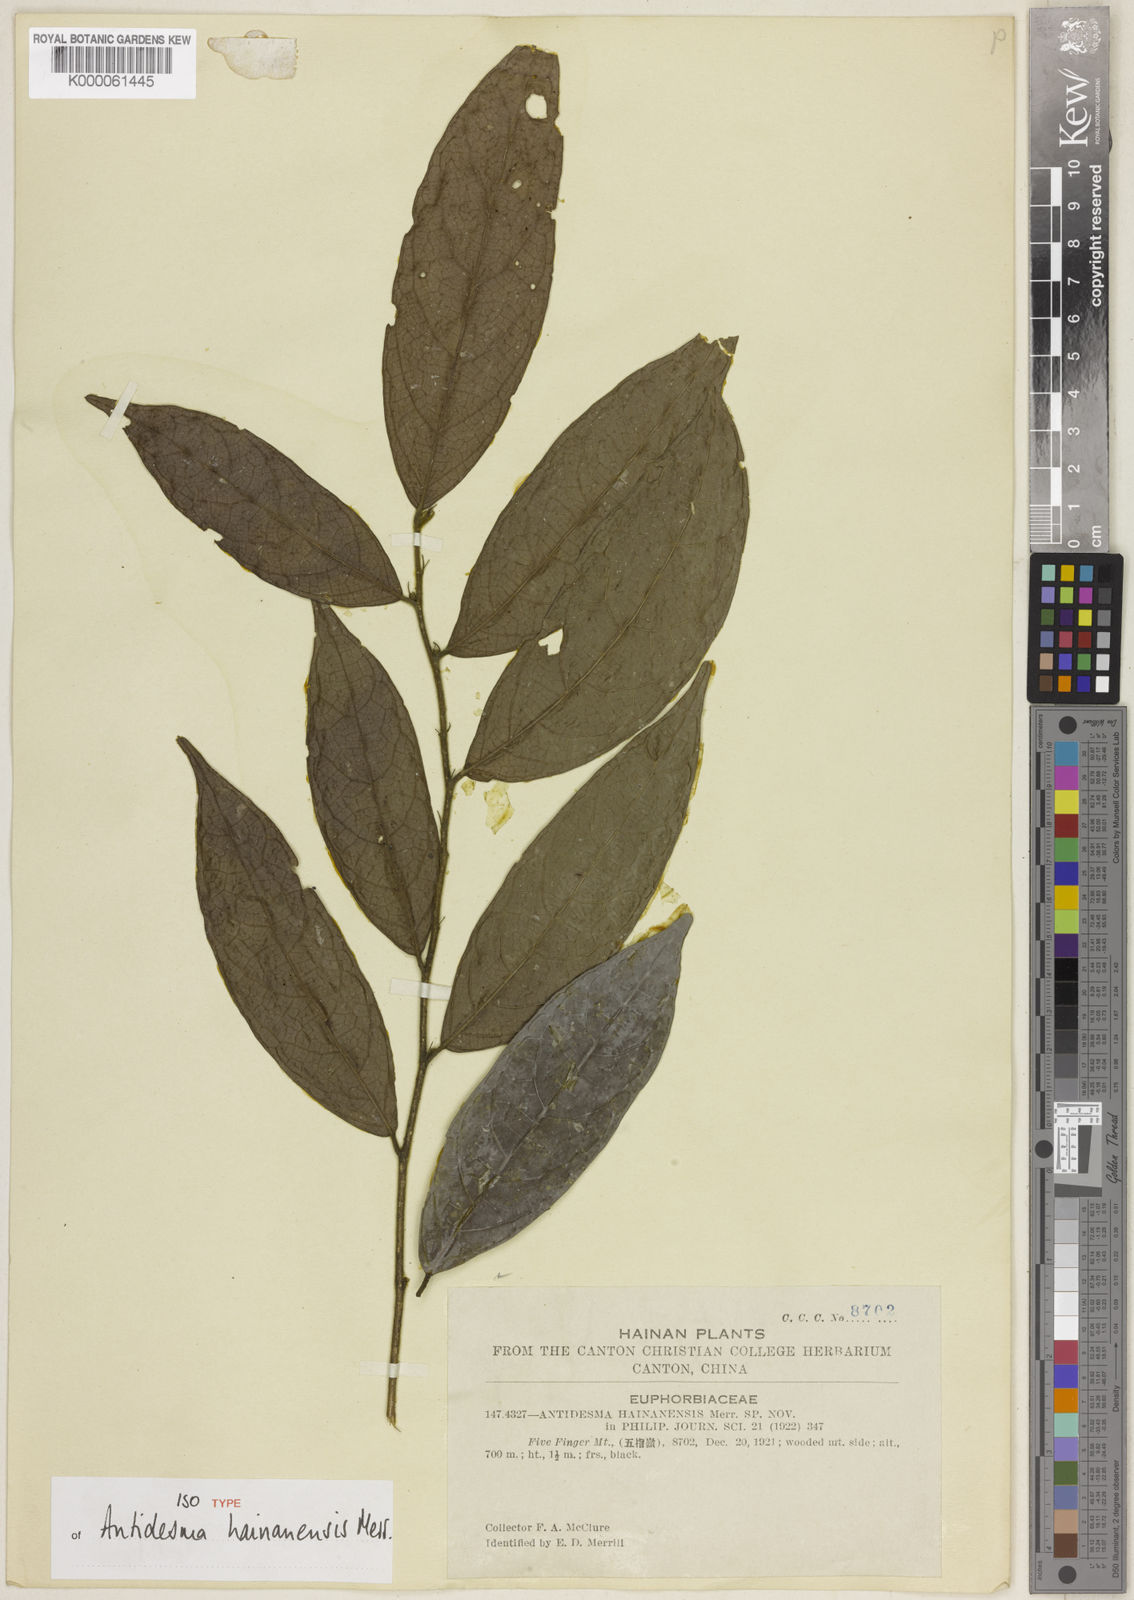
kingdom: Plantae
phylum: Tracheophyta
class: Magnoliopsida
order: Malpighiales
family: Phyllanthaceae
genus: Antidesma
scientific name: Antidesma
